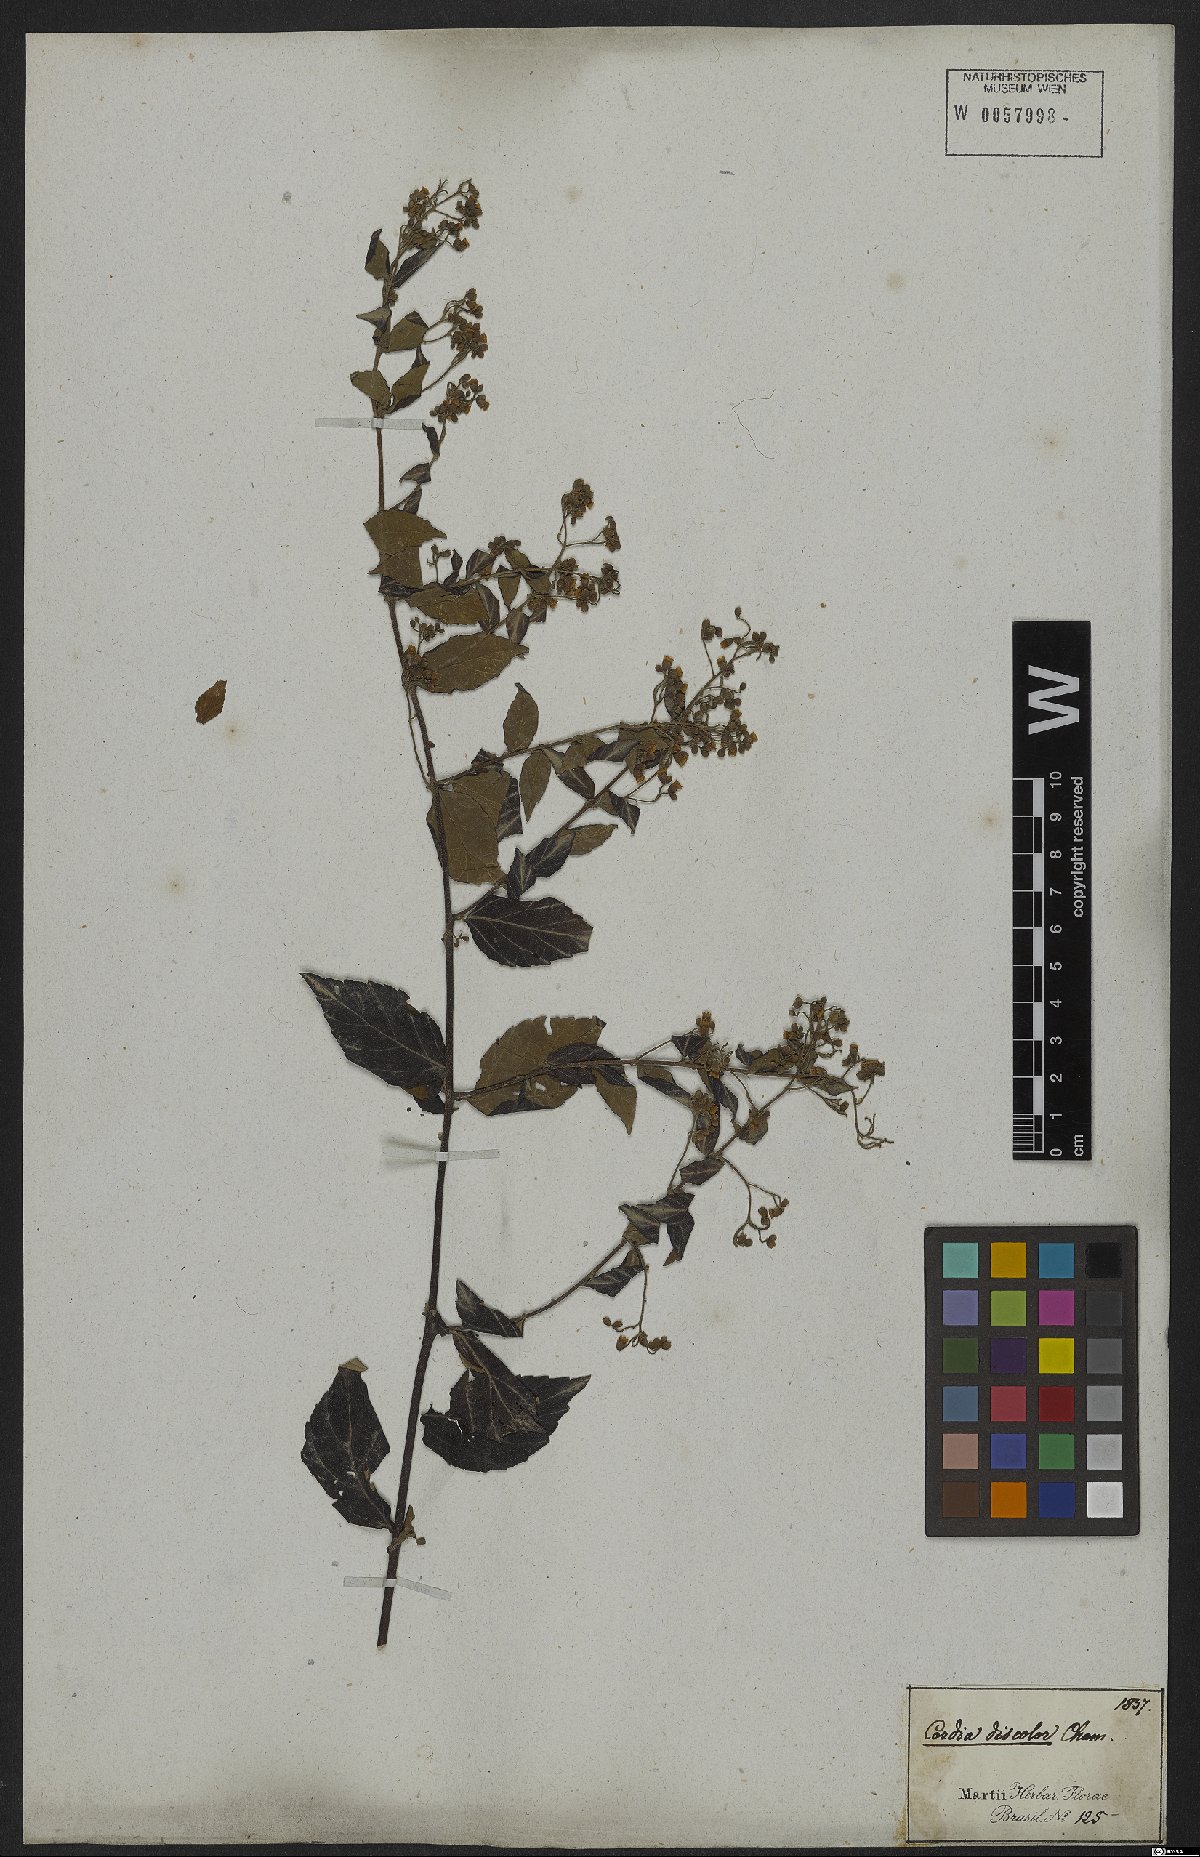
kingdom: Plantae
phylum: Tracheophyta
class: Magnoliopsida
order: Boraginales
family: Cordiaceae
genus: Varronia
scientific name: Varronia discolor
